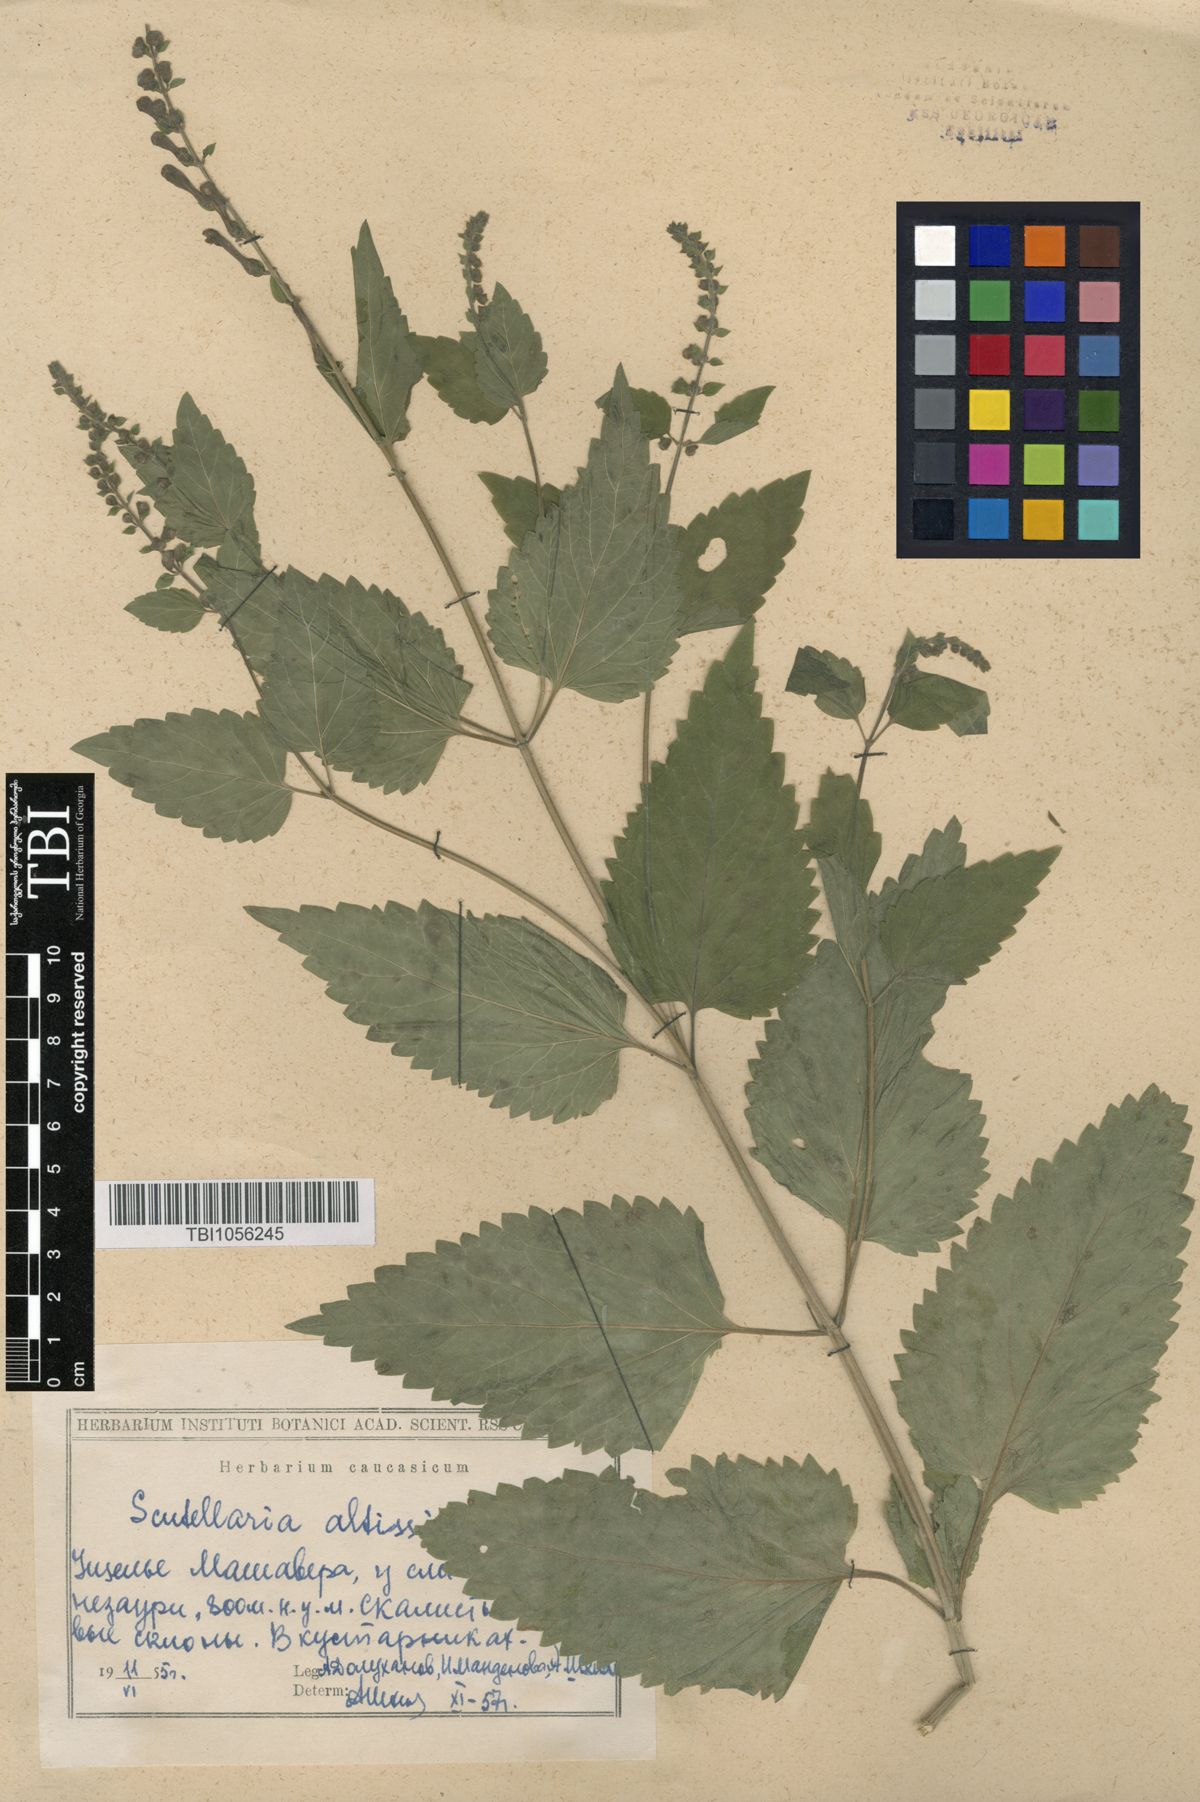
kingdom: Plantae
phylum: Tracheophyta
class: Magnoliopsida
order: Lamiales
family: Lamiaceae
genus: Scutellaria
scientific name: Scutellaria altissima
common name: Somerset skullcap
